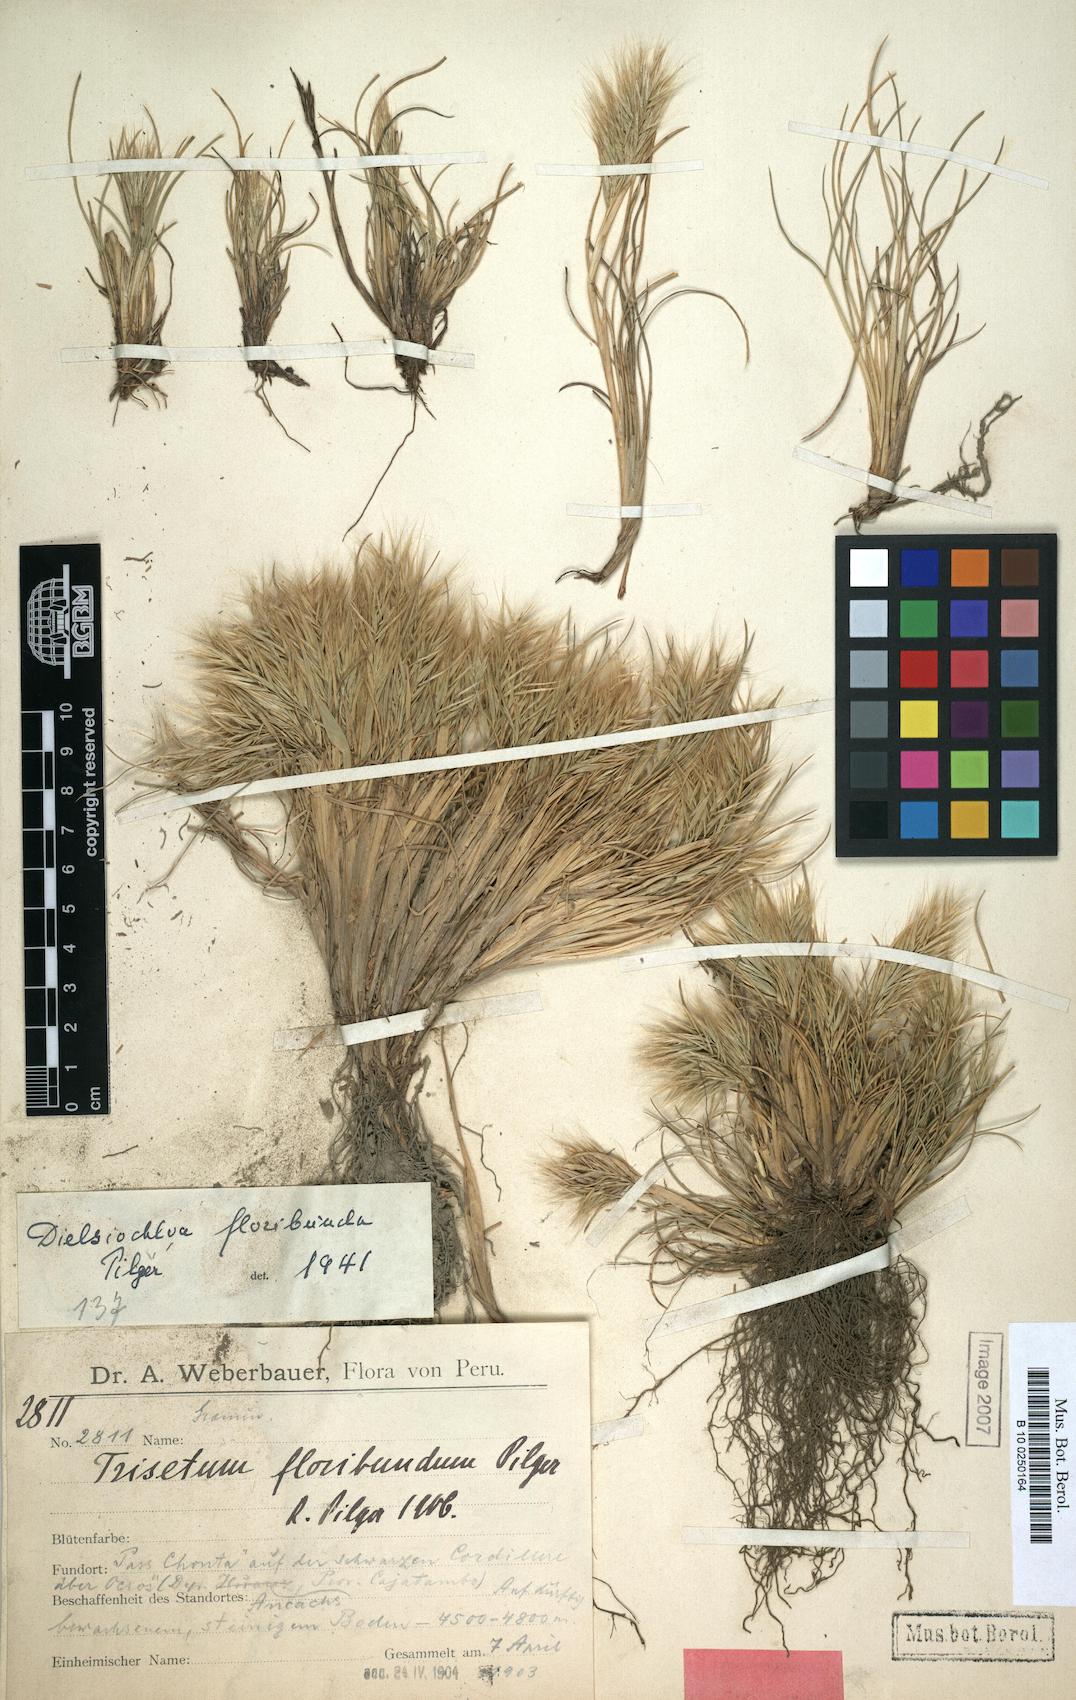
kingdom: Plantae
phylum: Tracheophyta
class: Liliopsida
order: Poales
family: Poaceae
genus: Festuca
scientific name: Festuca floribunda
